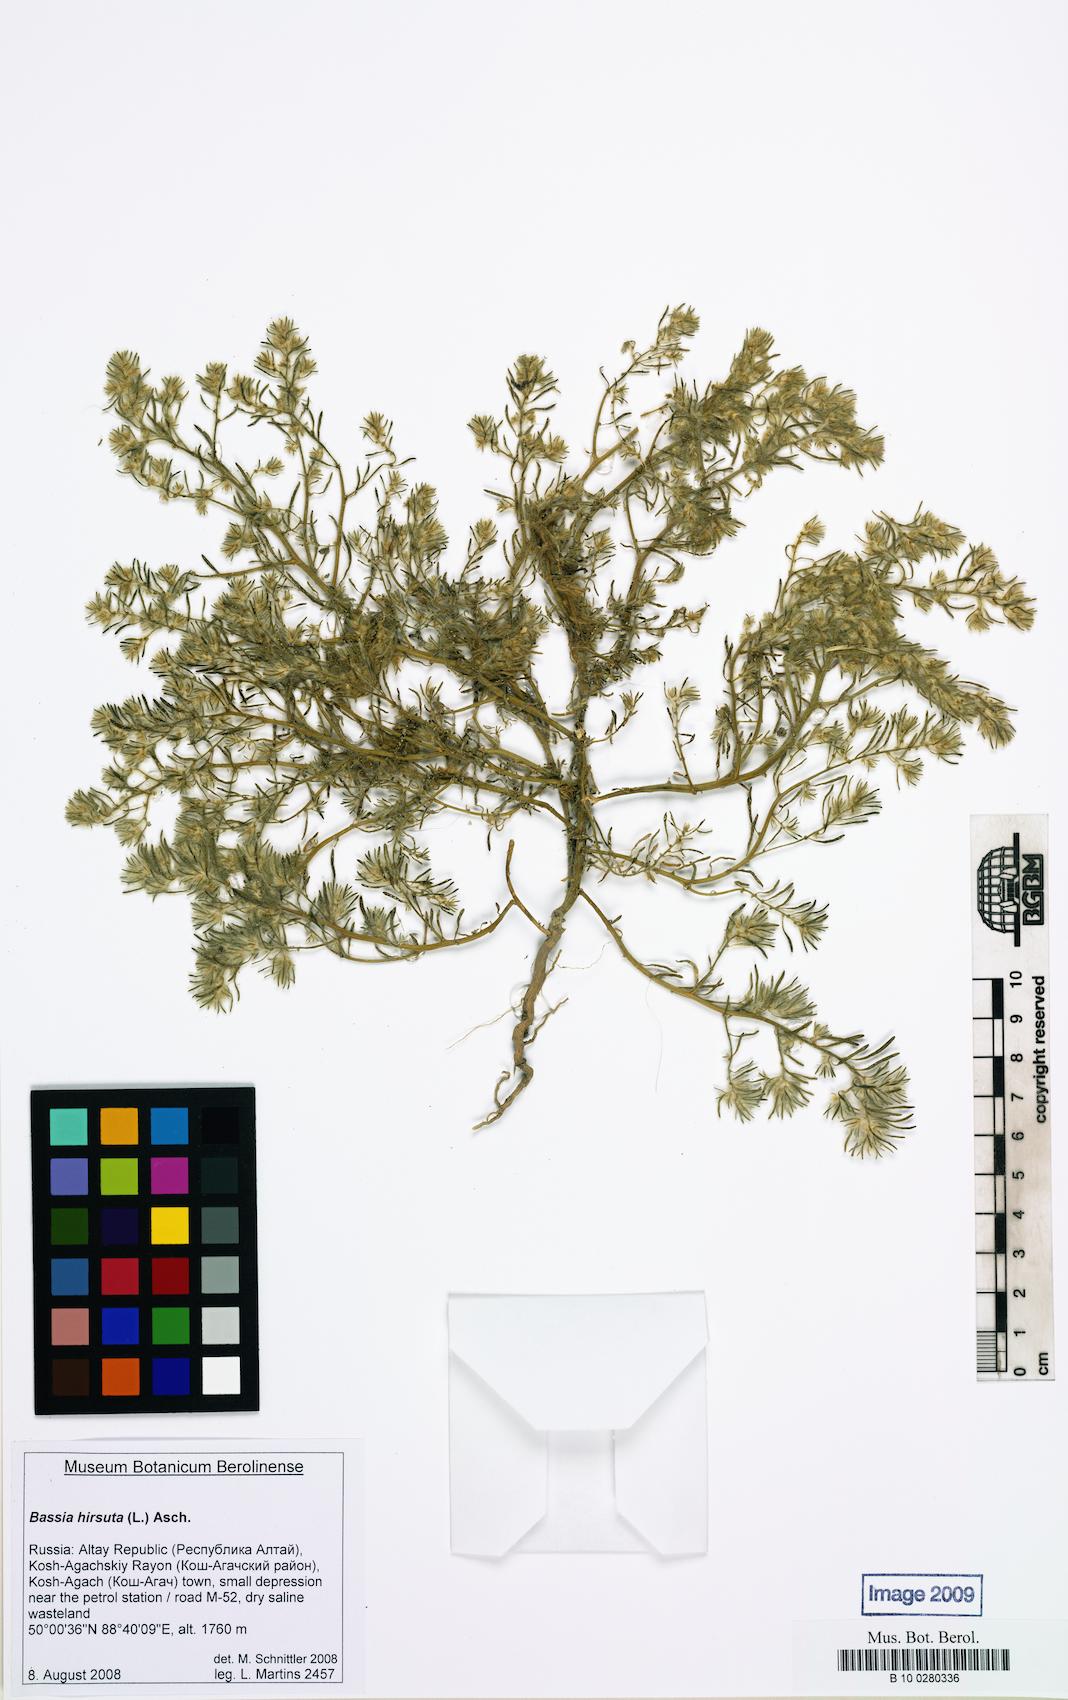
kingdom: Plantae
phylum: Tracheophyta
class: Magnoliopsida
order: Caryophyllales
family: Amaranthaceae
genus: Grubovia
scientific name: Grubovia dasyphylla
